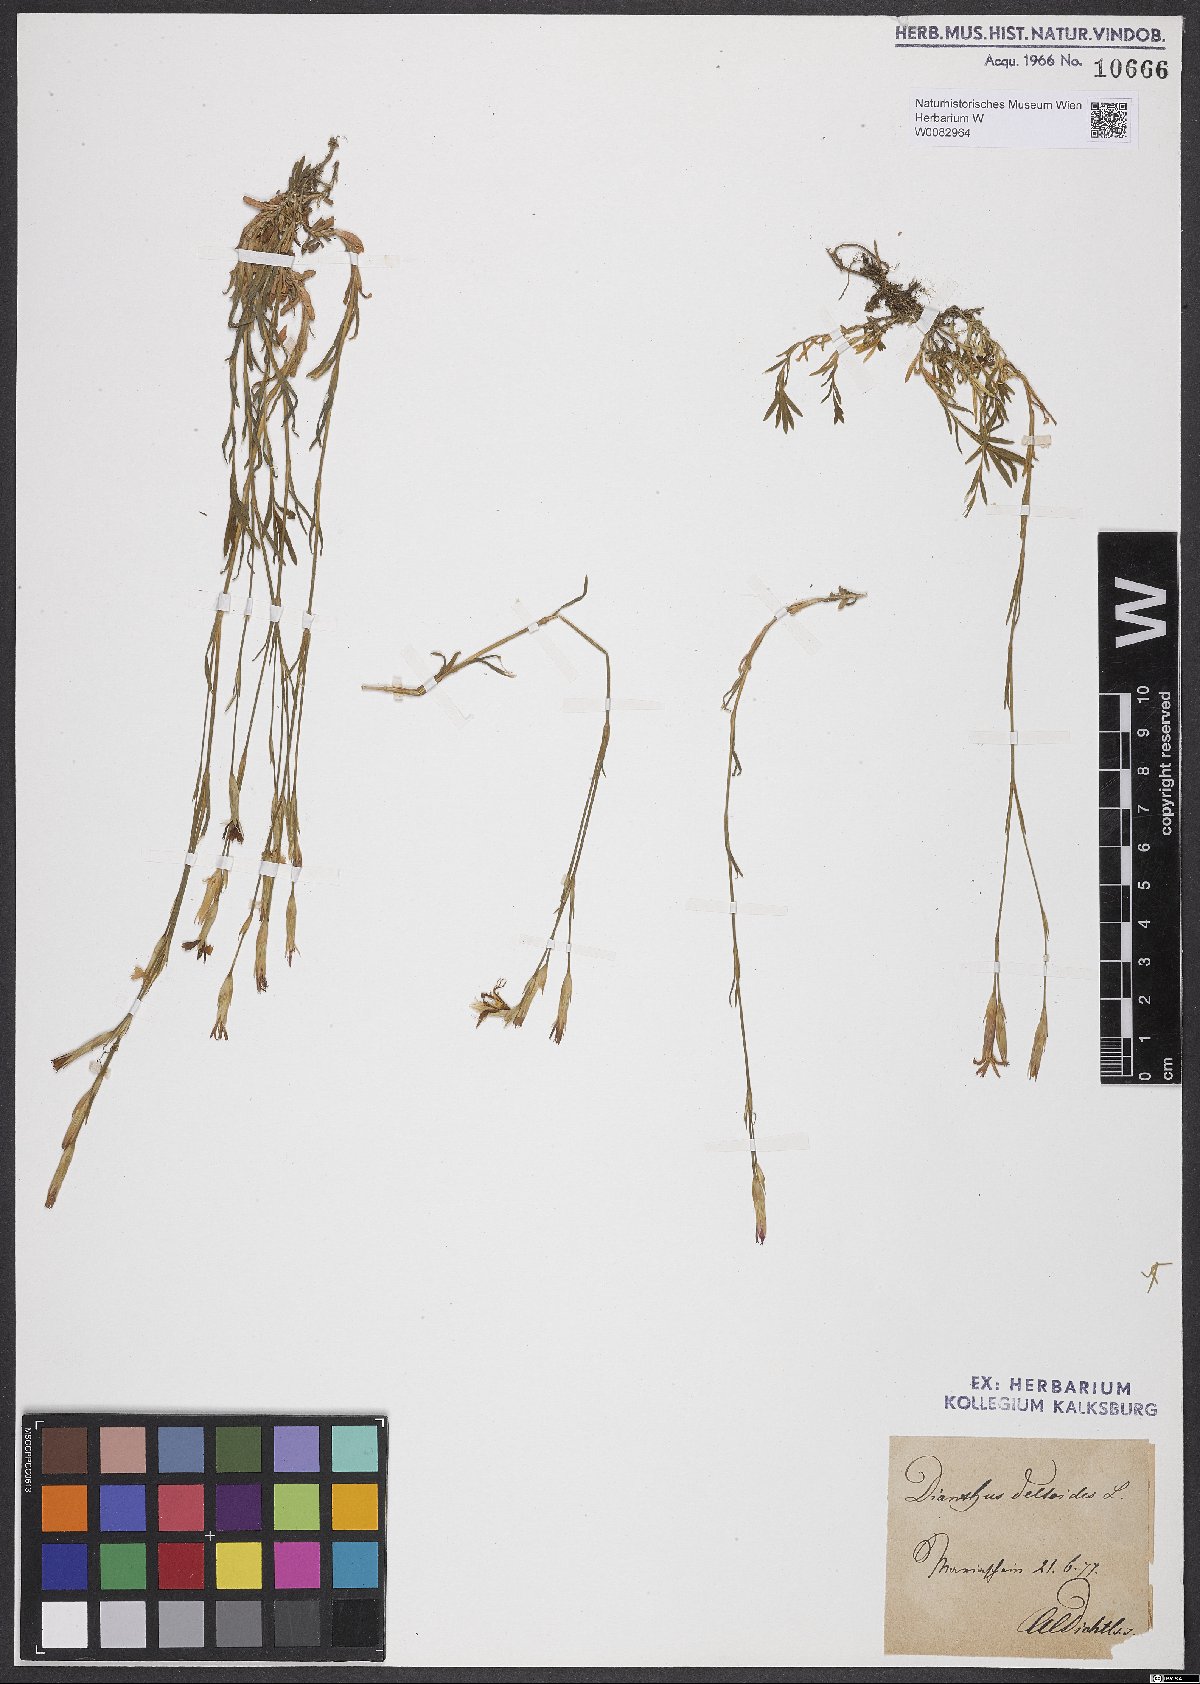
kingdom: Plantae
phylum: Tracheophyta
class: Magnoliopsida
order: Caryophyllales
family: Caryophyllaceae
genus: Dianthus
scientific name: Dianthus deltoides
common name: Maiden pink
